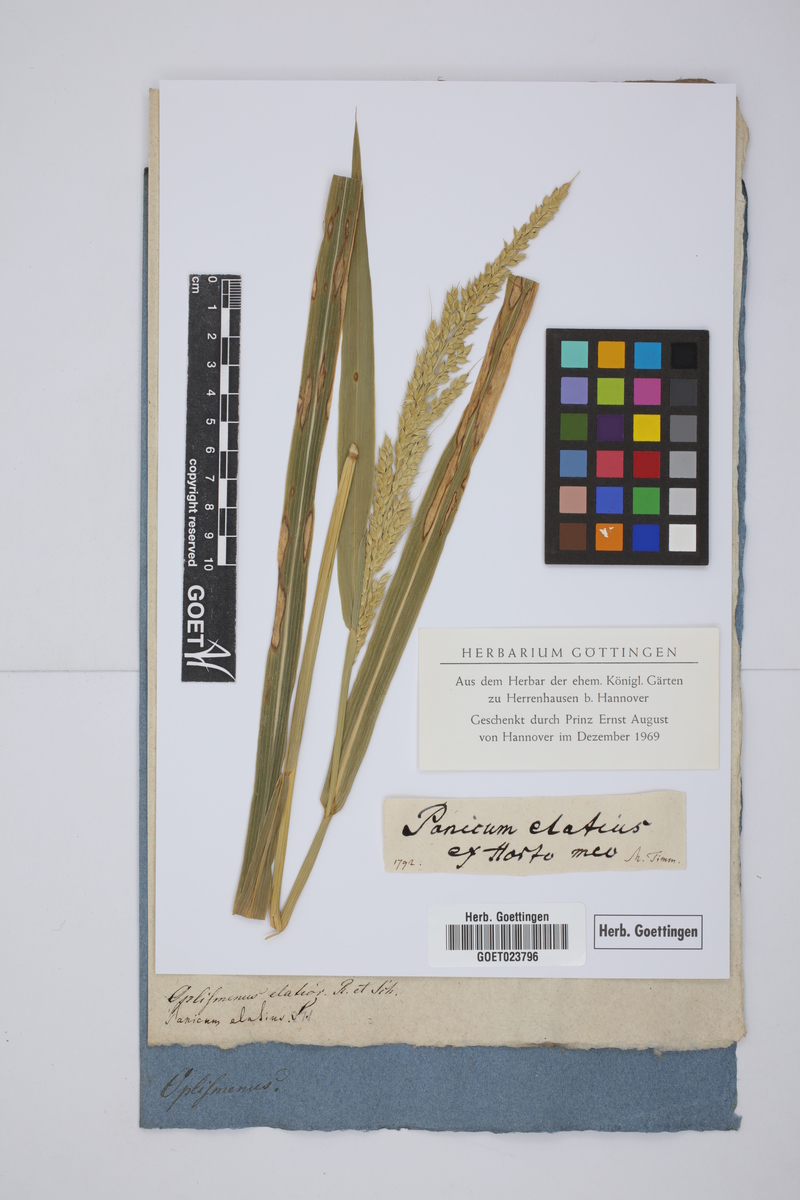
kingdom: Plantae
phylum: Tracheophyta
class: Liliopsida
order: Poales
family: Poaceae
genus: Oplismenus
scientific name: Oplismenus compositus
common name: Running mountain grass
